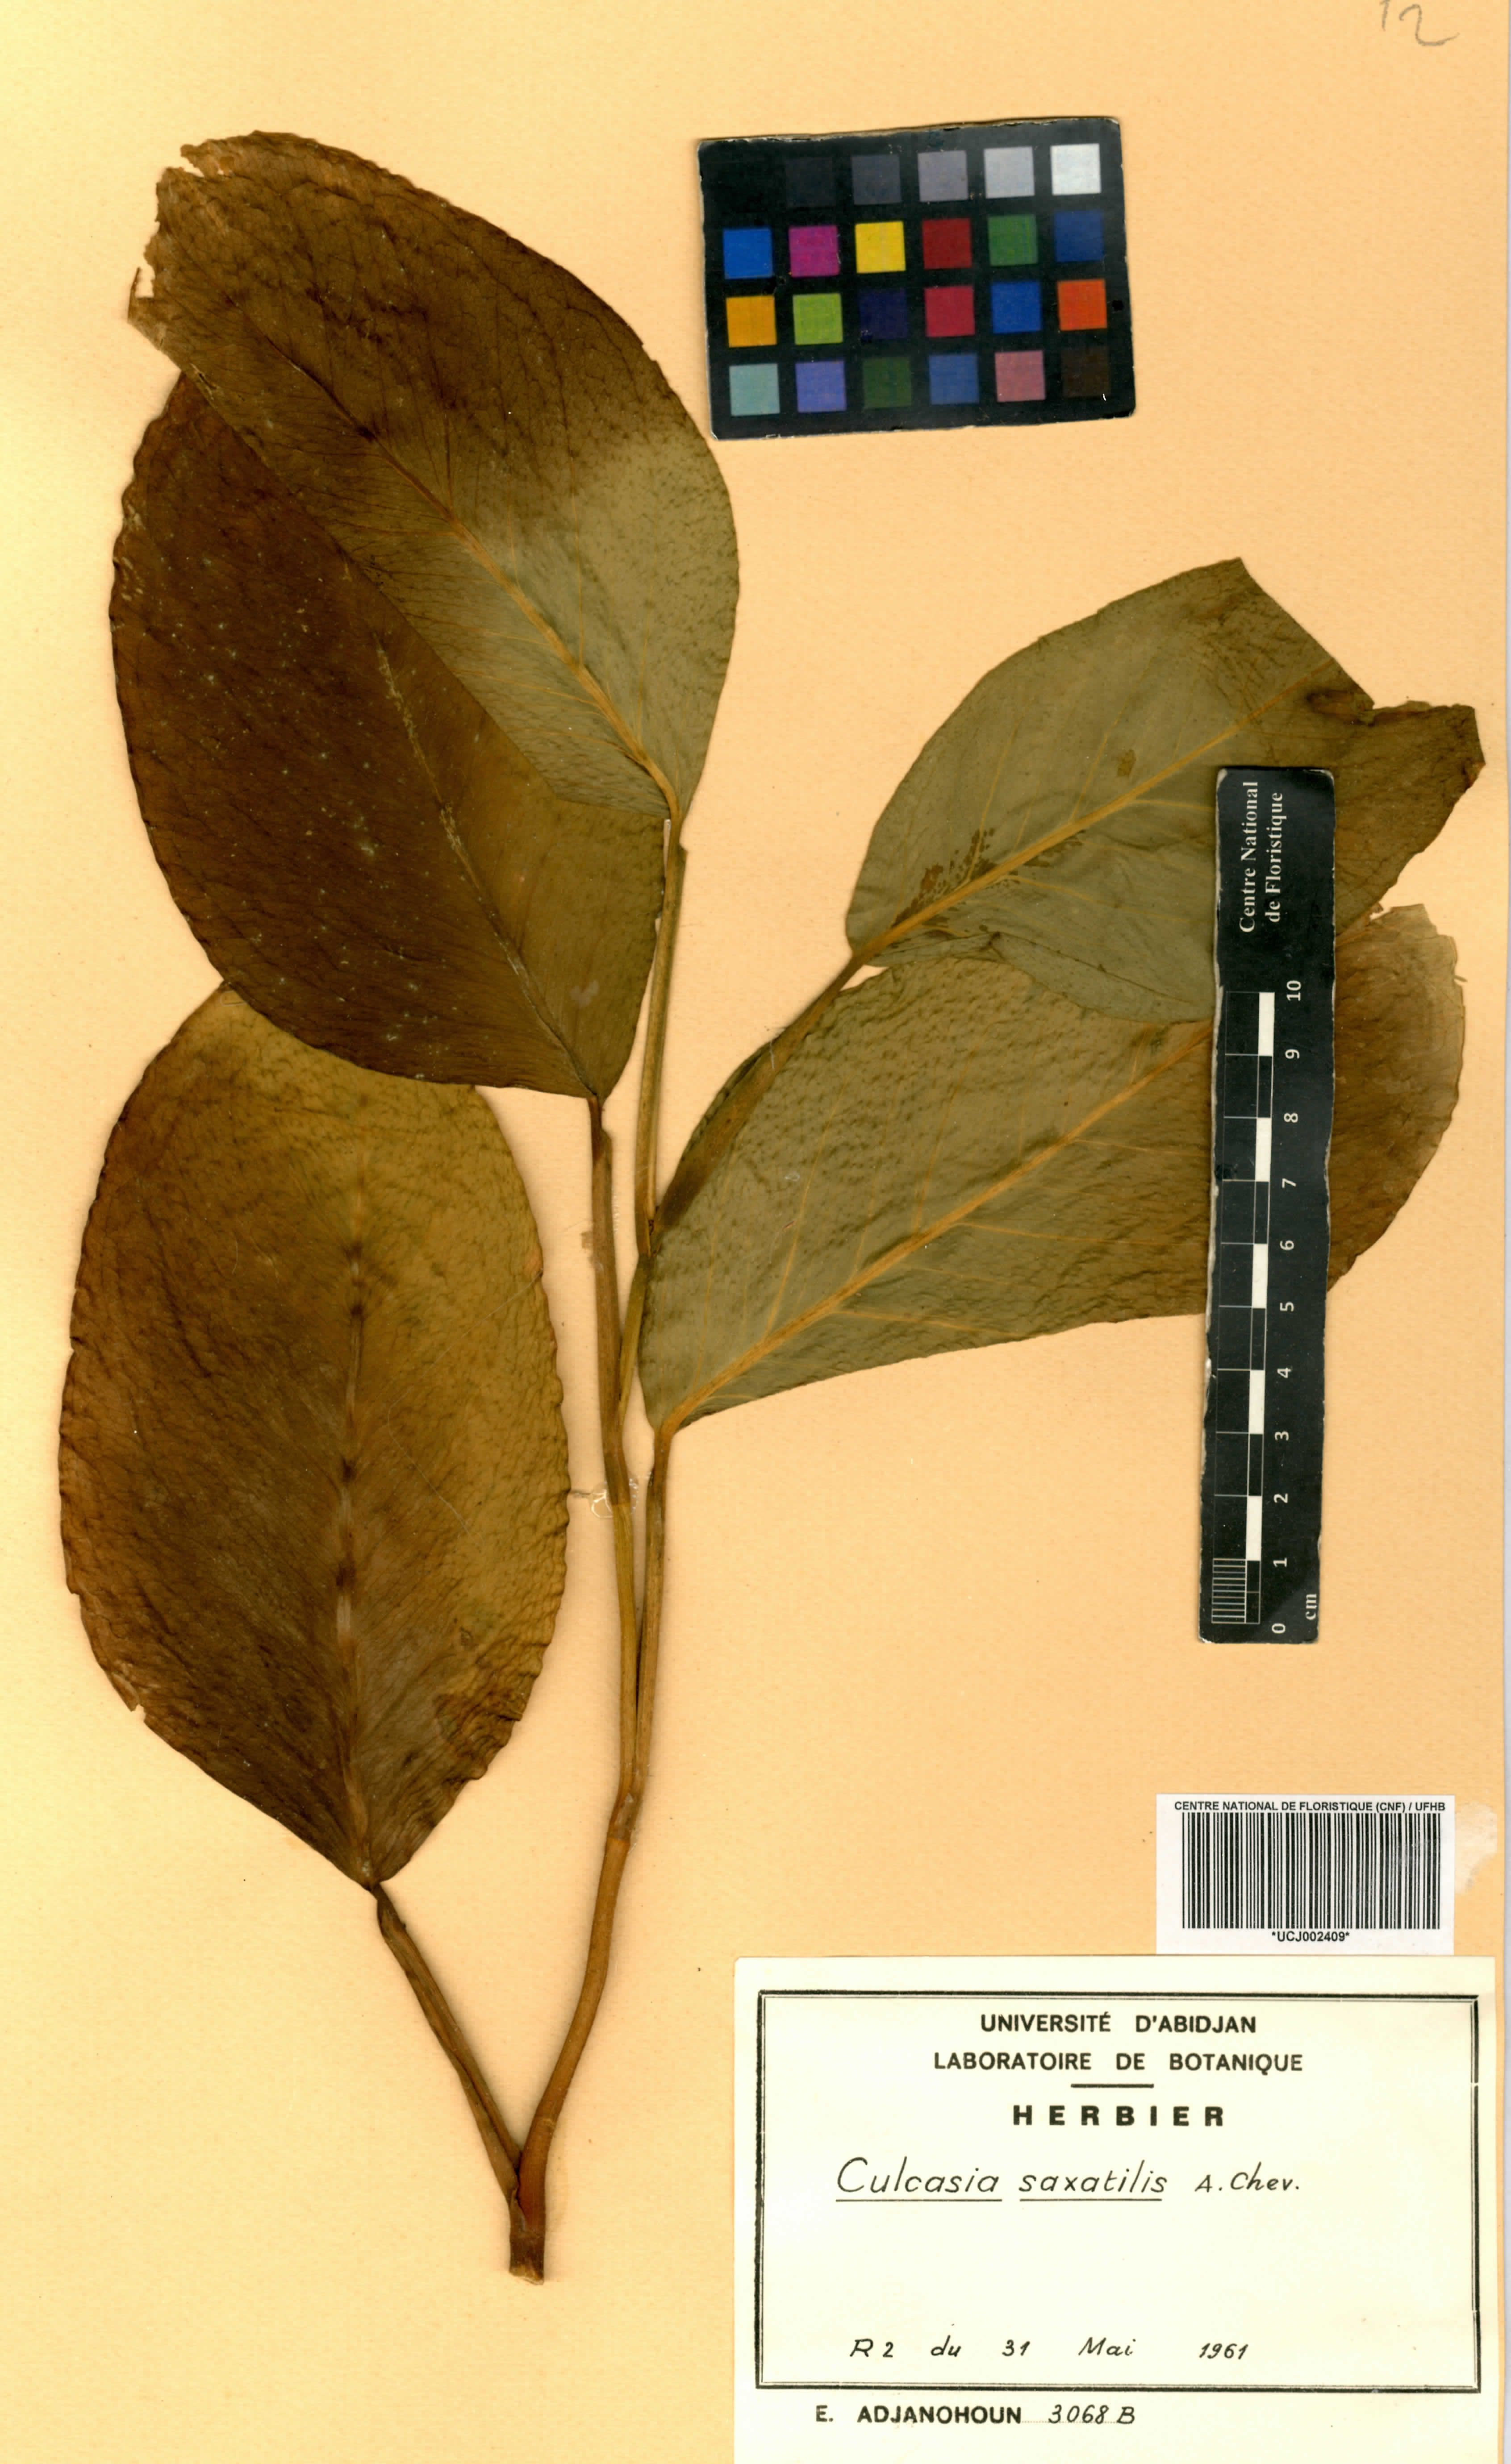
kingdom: Plantae
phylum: Tracheophyta
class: Liliopsida
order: Alismatales
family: Araceae
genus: Culcasia
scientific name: Culcasia scandens
